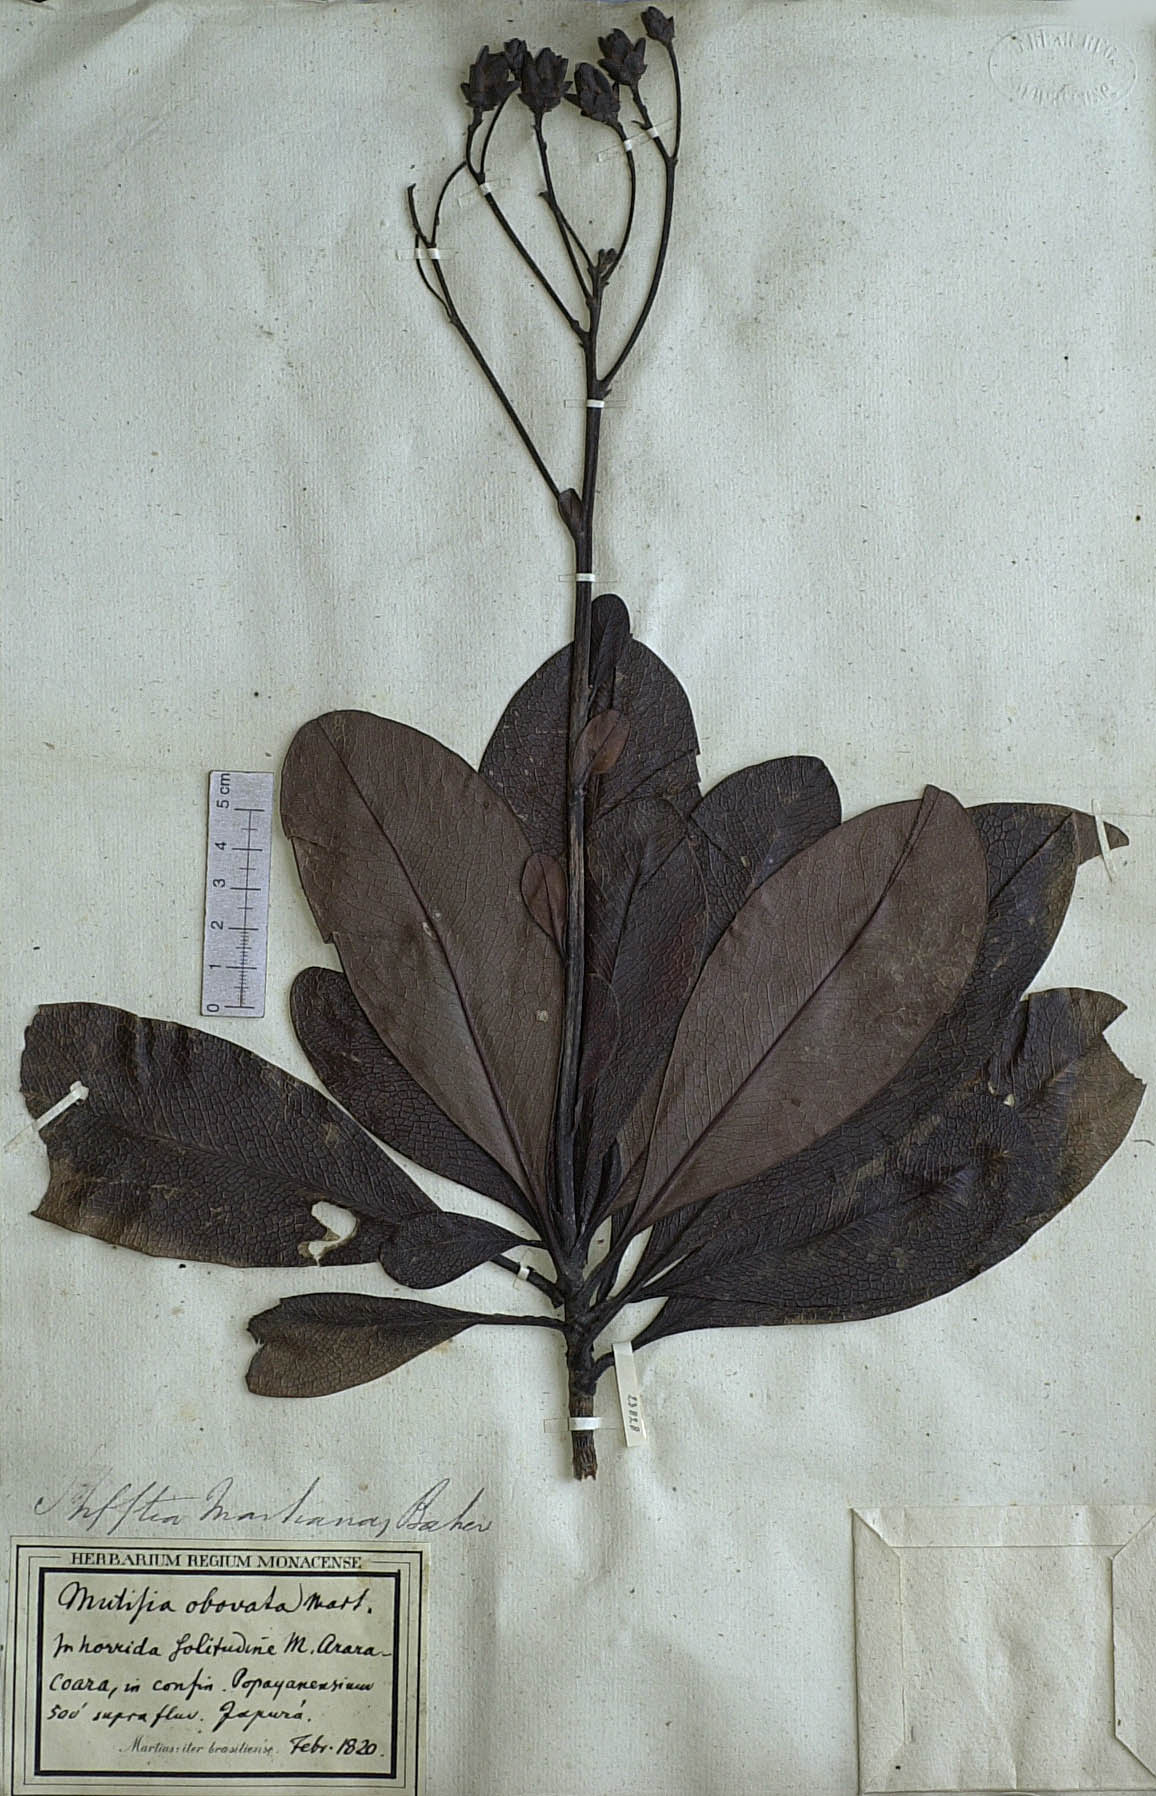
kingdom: Plantae
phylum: Tracheophyta
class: Magnoliopsida
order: Asterales
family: Asteraceae
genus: Gongylolepis
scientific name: Gongylolepis martiana
